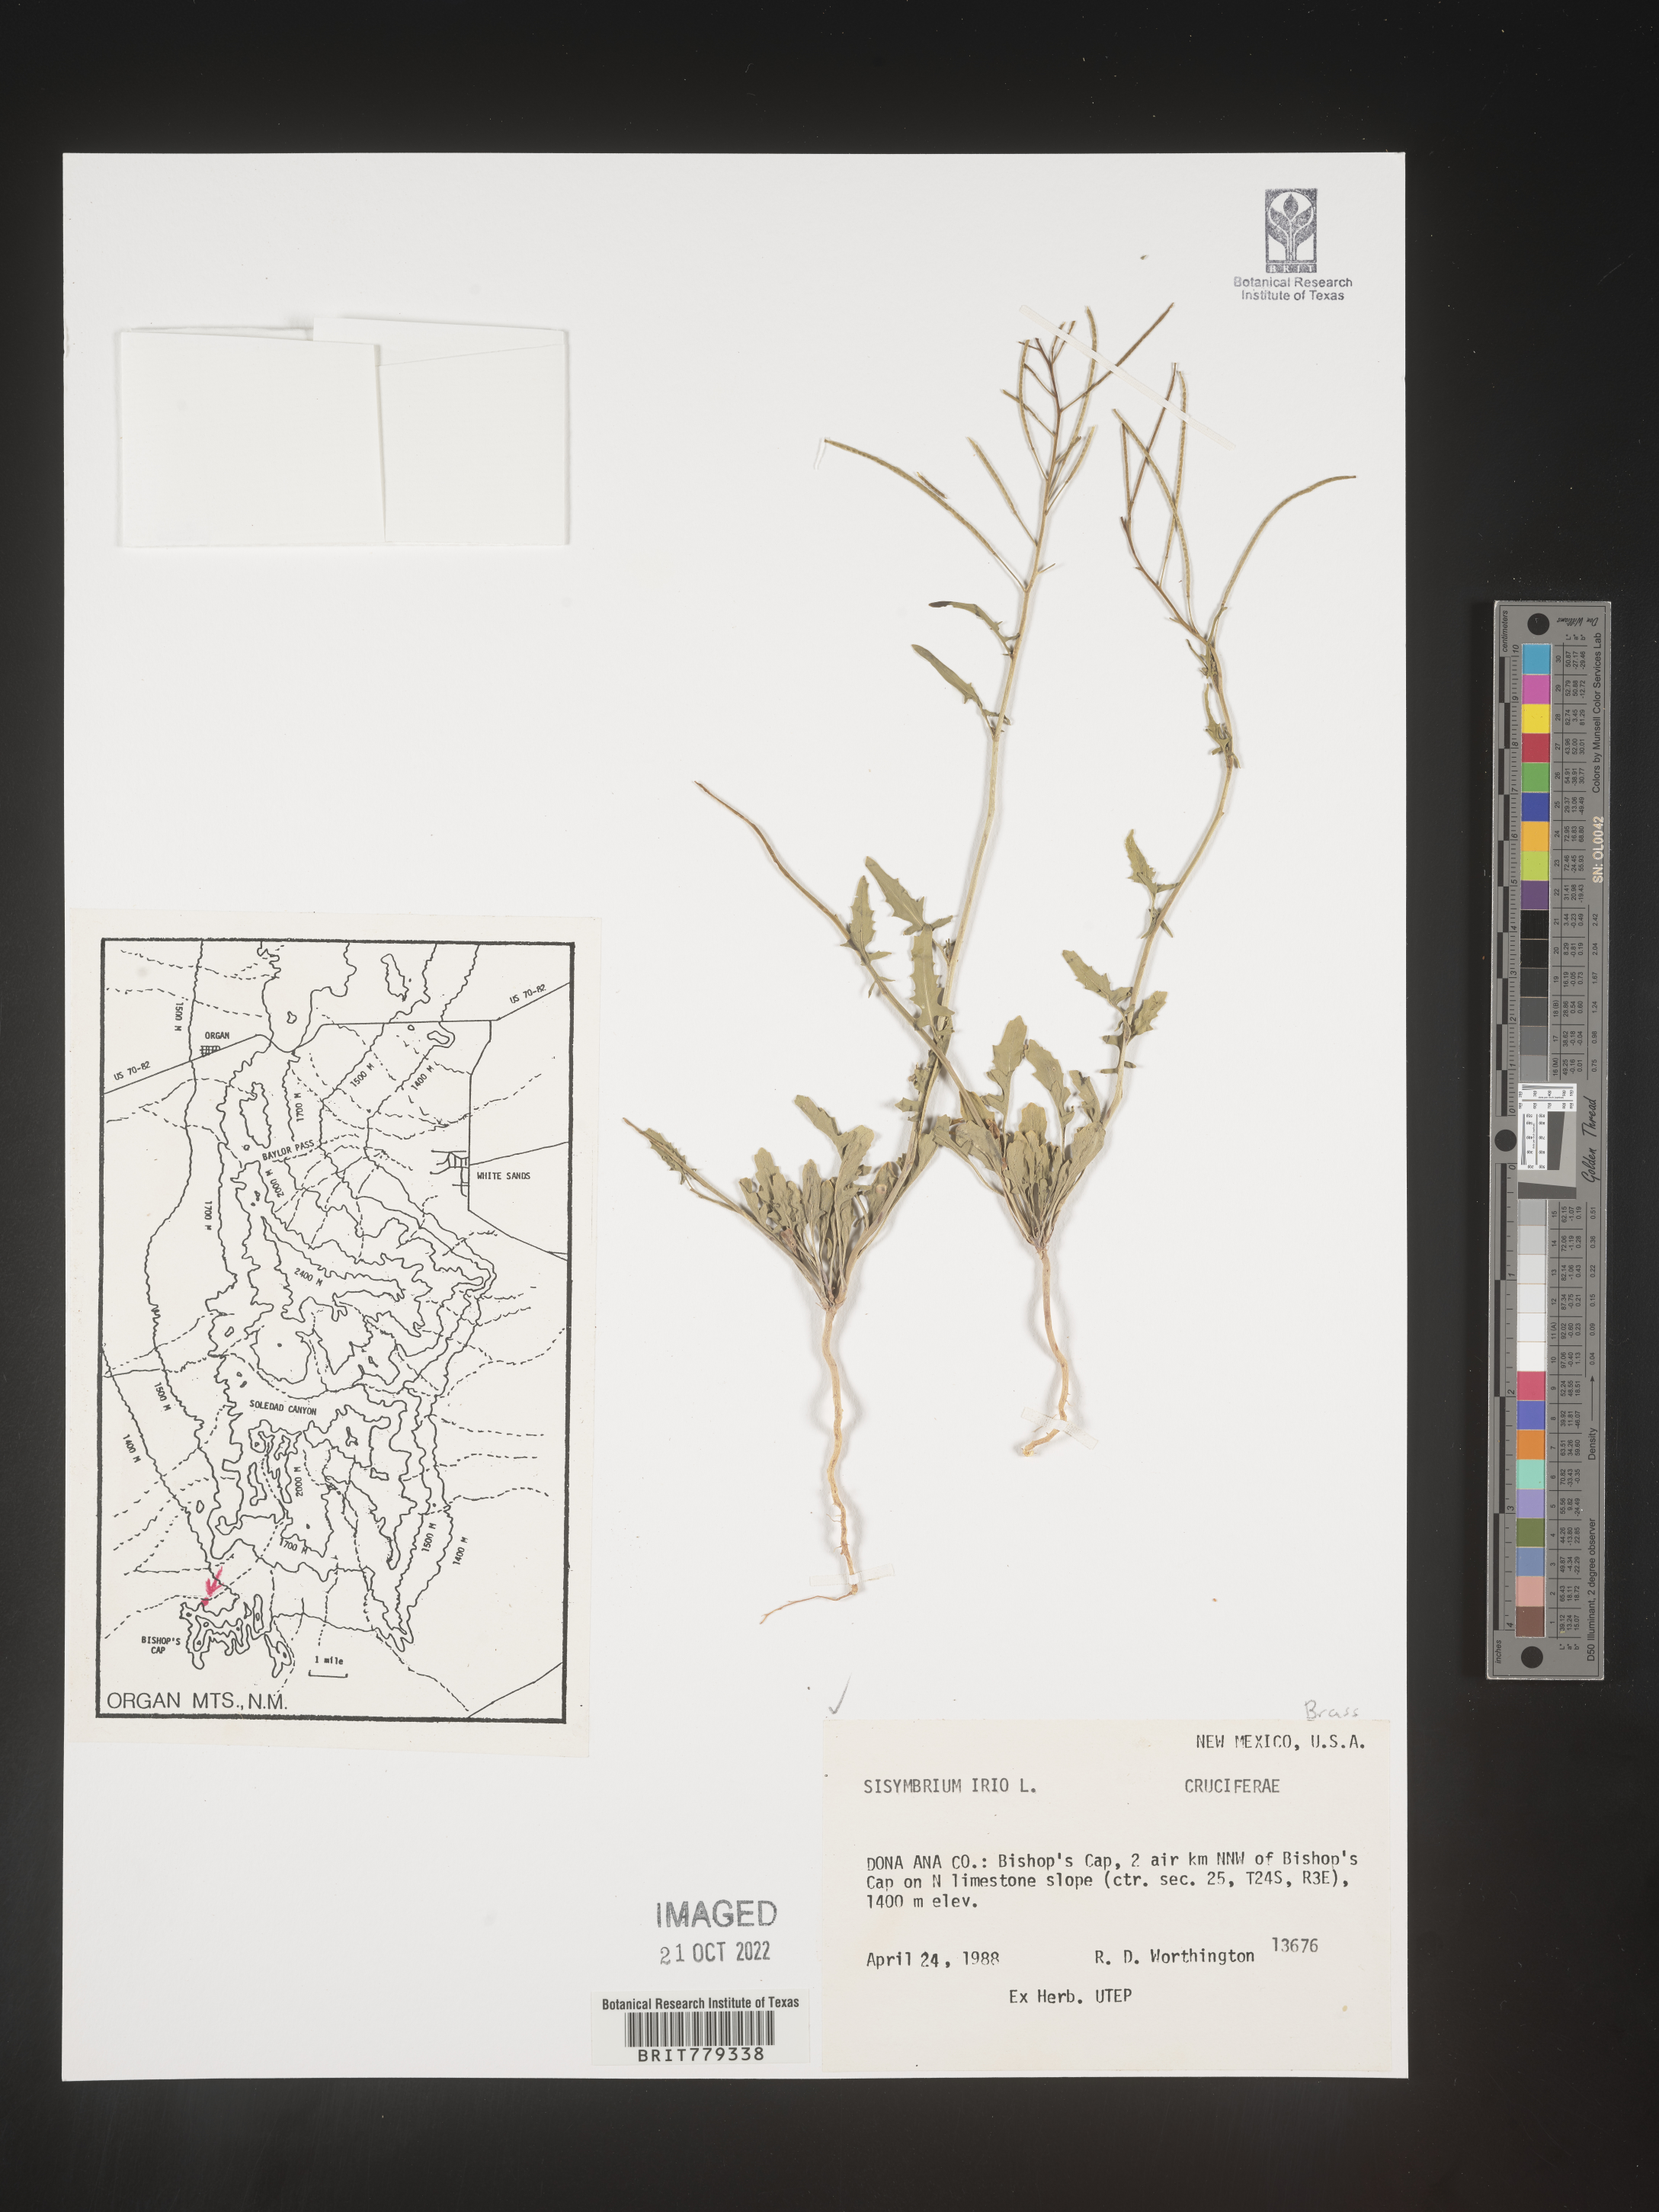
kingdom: Plantae
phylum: Tracheophyta
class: Magnoliopsida
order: Brassicales
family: Brassicaceae
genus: Sisymbrium
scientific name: Sisymbrium
